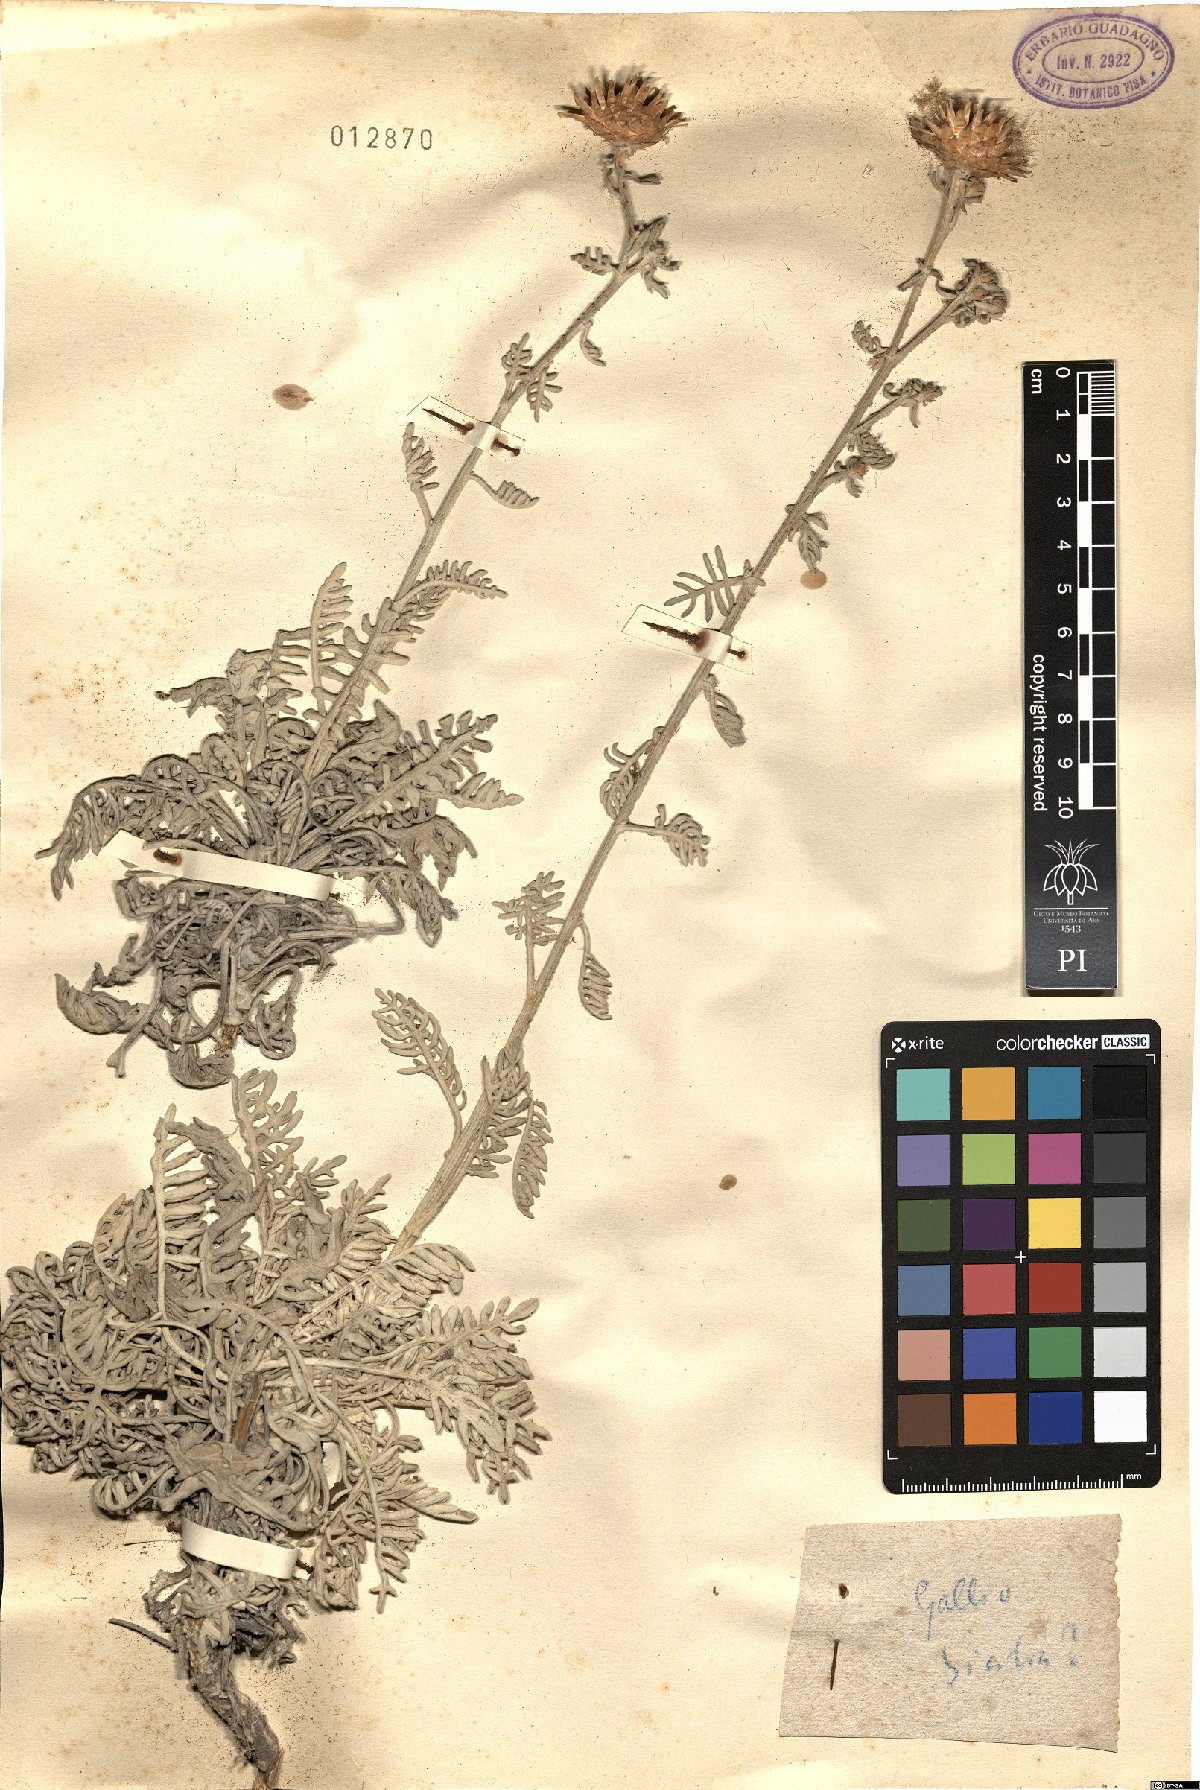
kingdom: Plantae
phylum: Tracheophyta
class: Magnoliopsida
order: Asterales
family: Asteraceae
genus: Centaurea
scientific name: Centaurea
